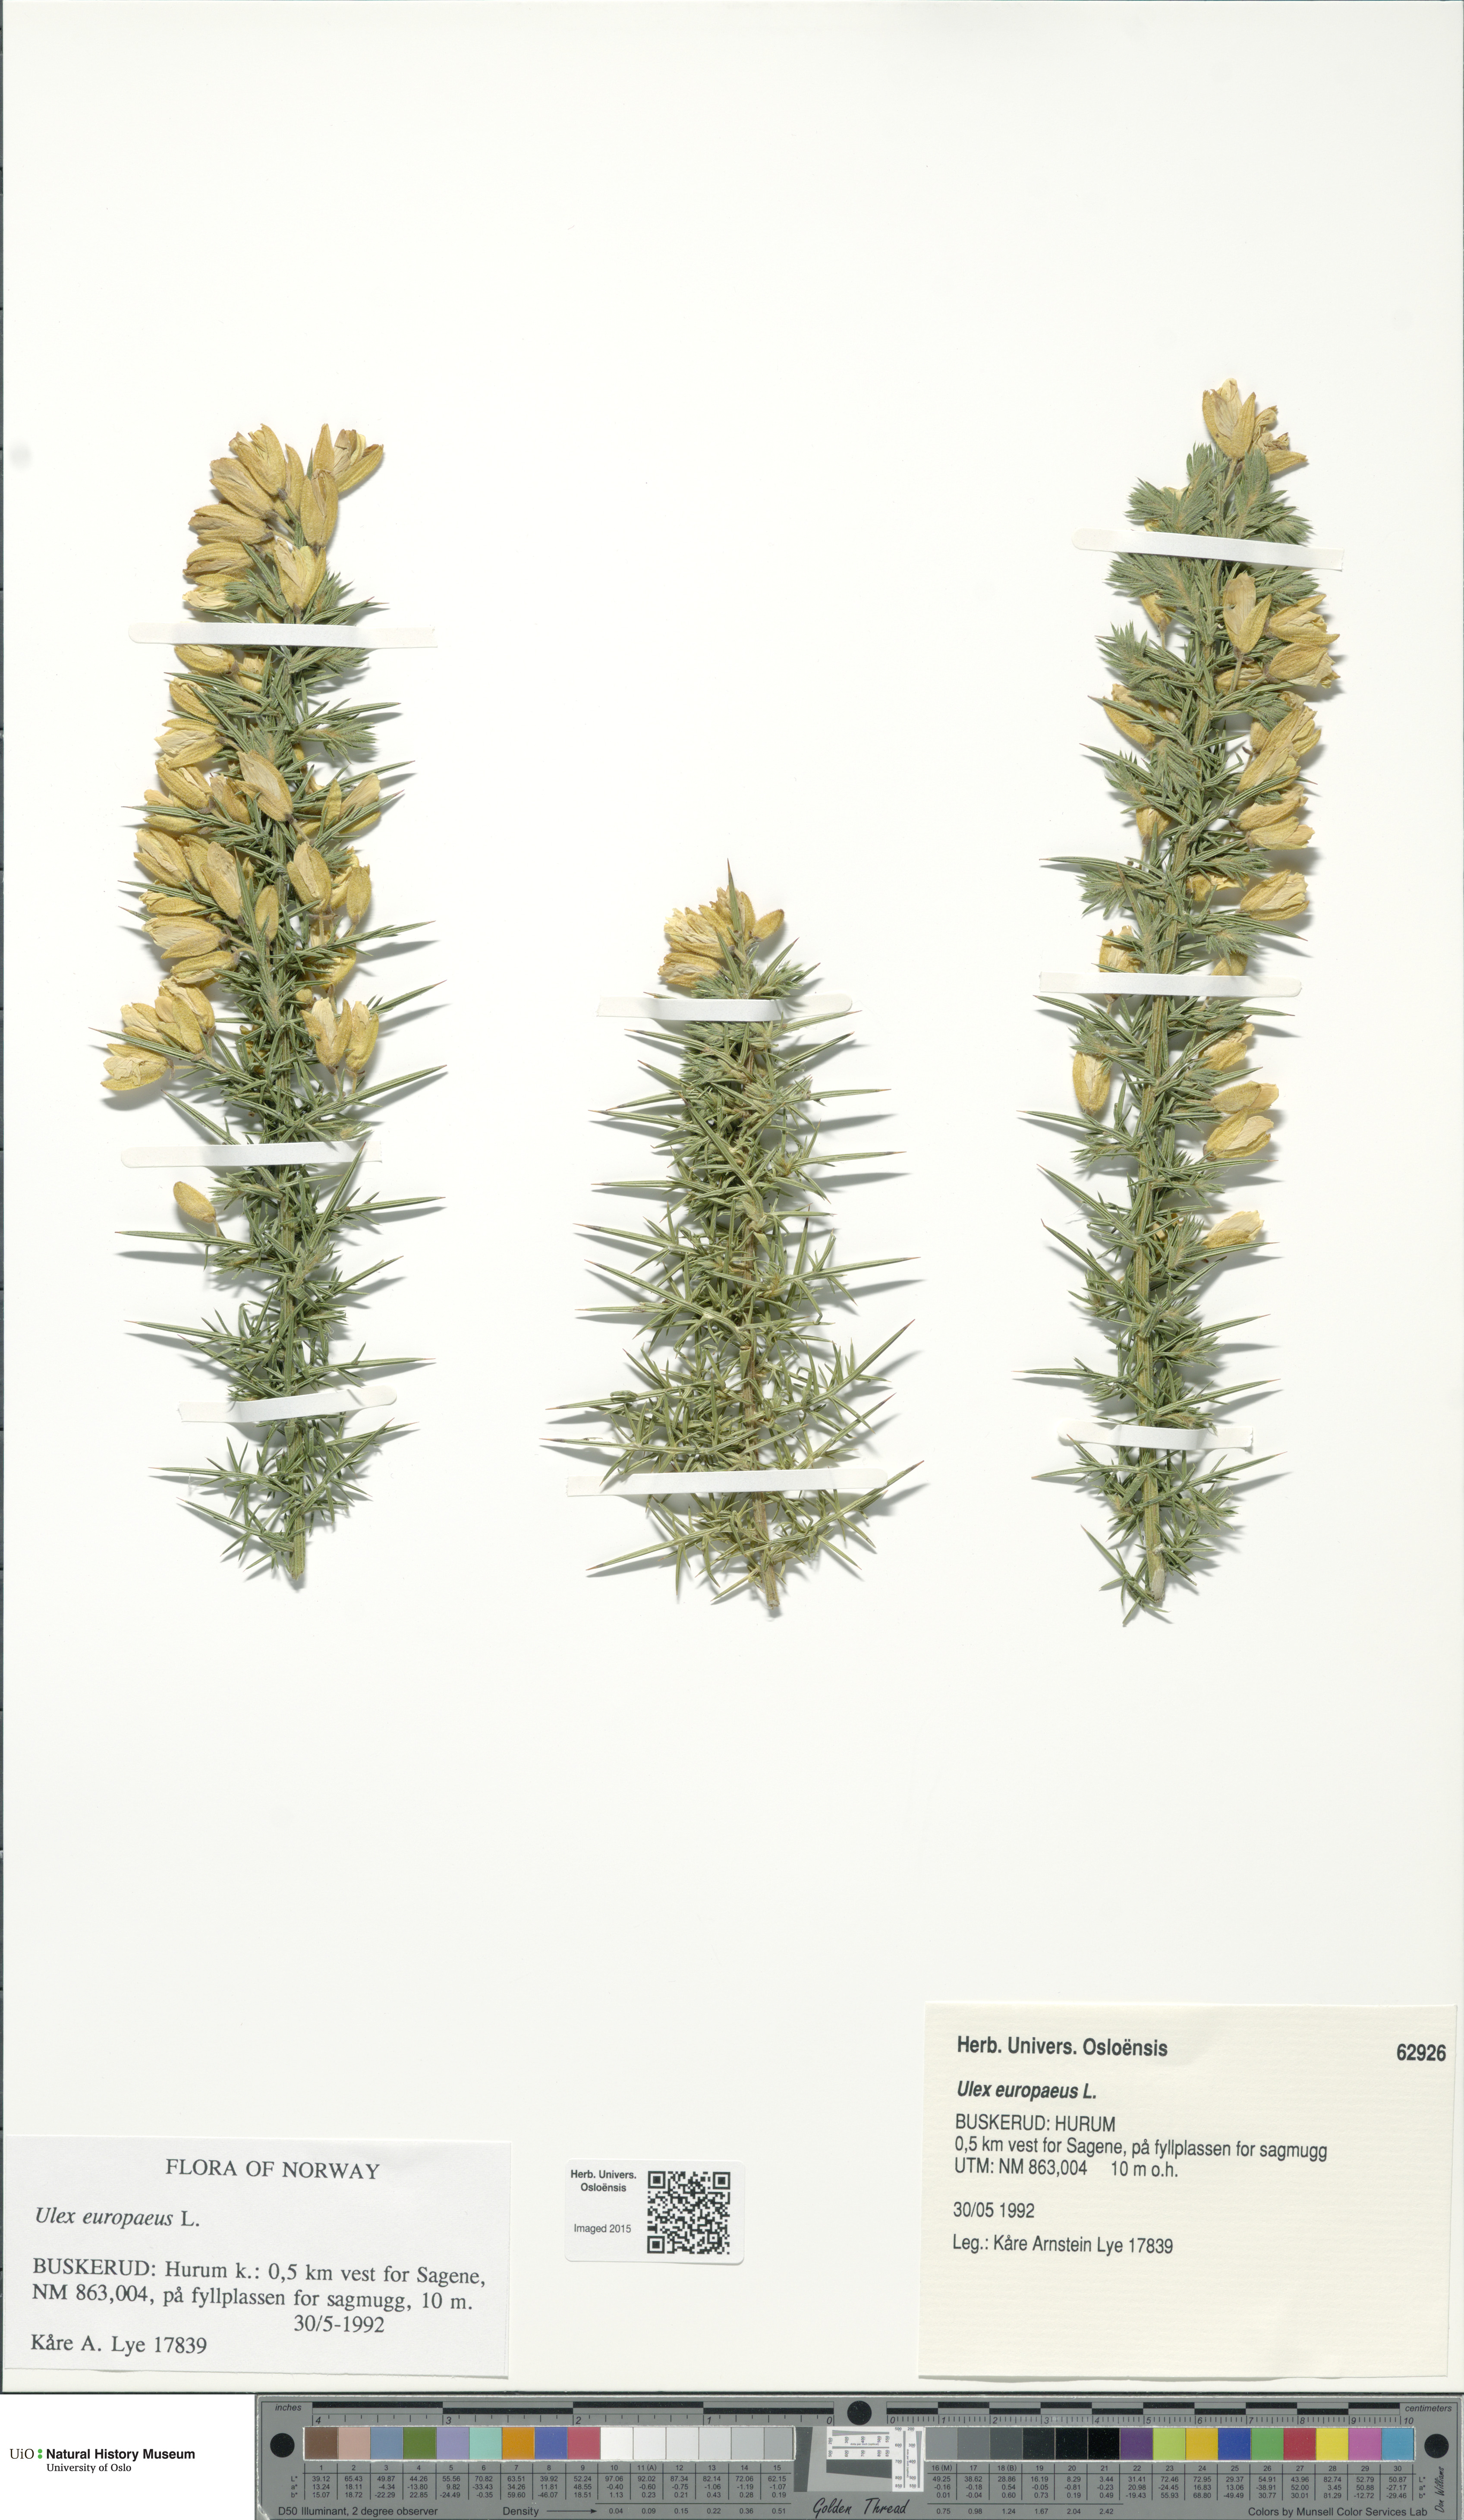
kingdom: Plantae
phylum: Tracheophyta
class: Magnoliopsida
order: Fabales
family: Fabaceae
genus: Ulex
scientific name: Ulex europaeus
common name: Common gorse
